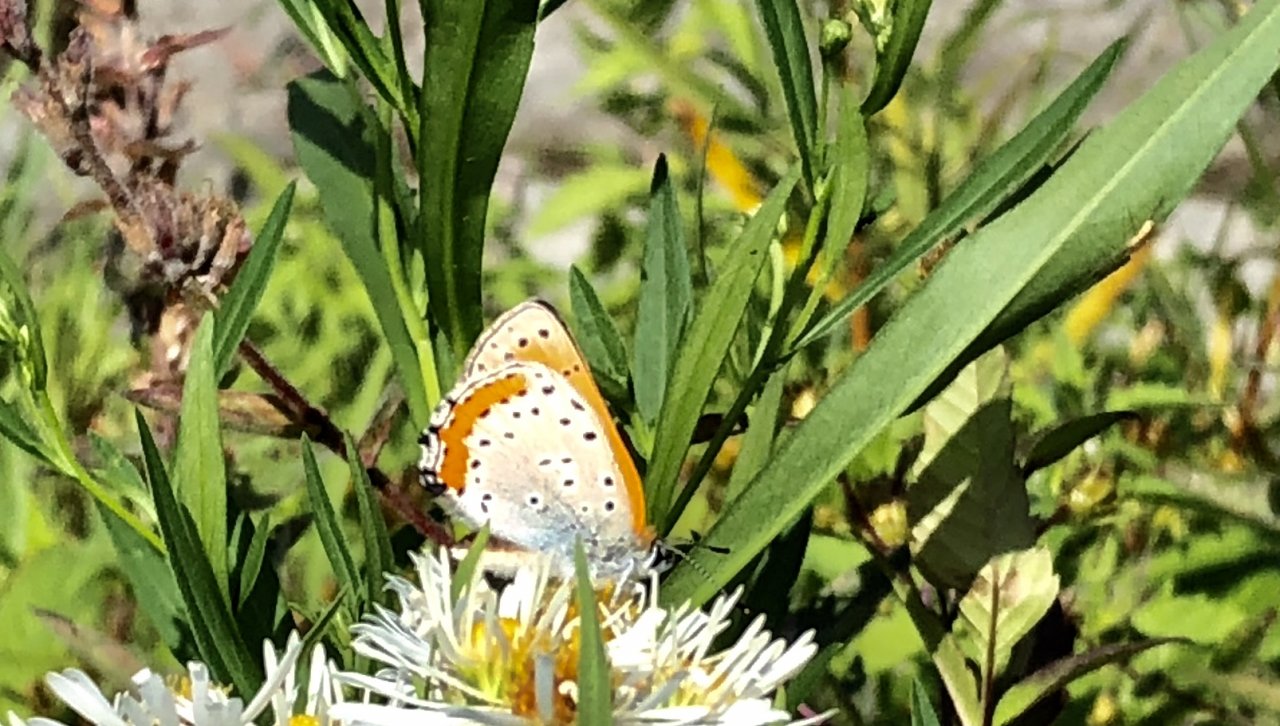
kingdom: Animalia
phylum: Arthropoda
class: Insecta
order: Lepidoptera
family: Sesiidae
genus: Sesia
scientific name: Sesia Lycaena hyllus
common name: Bronze Copper
